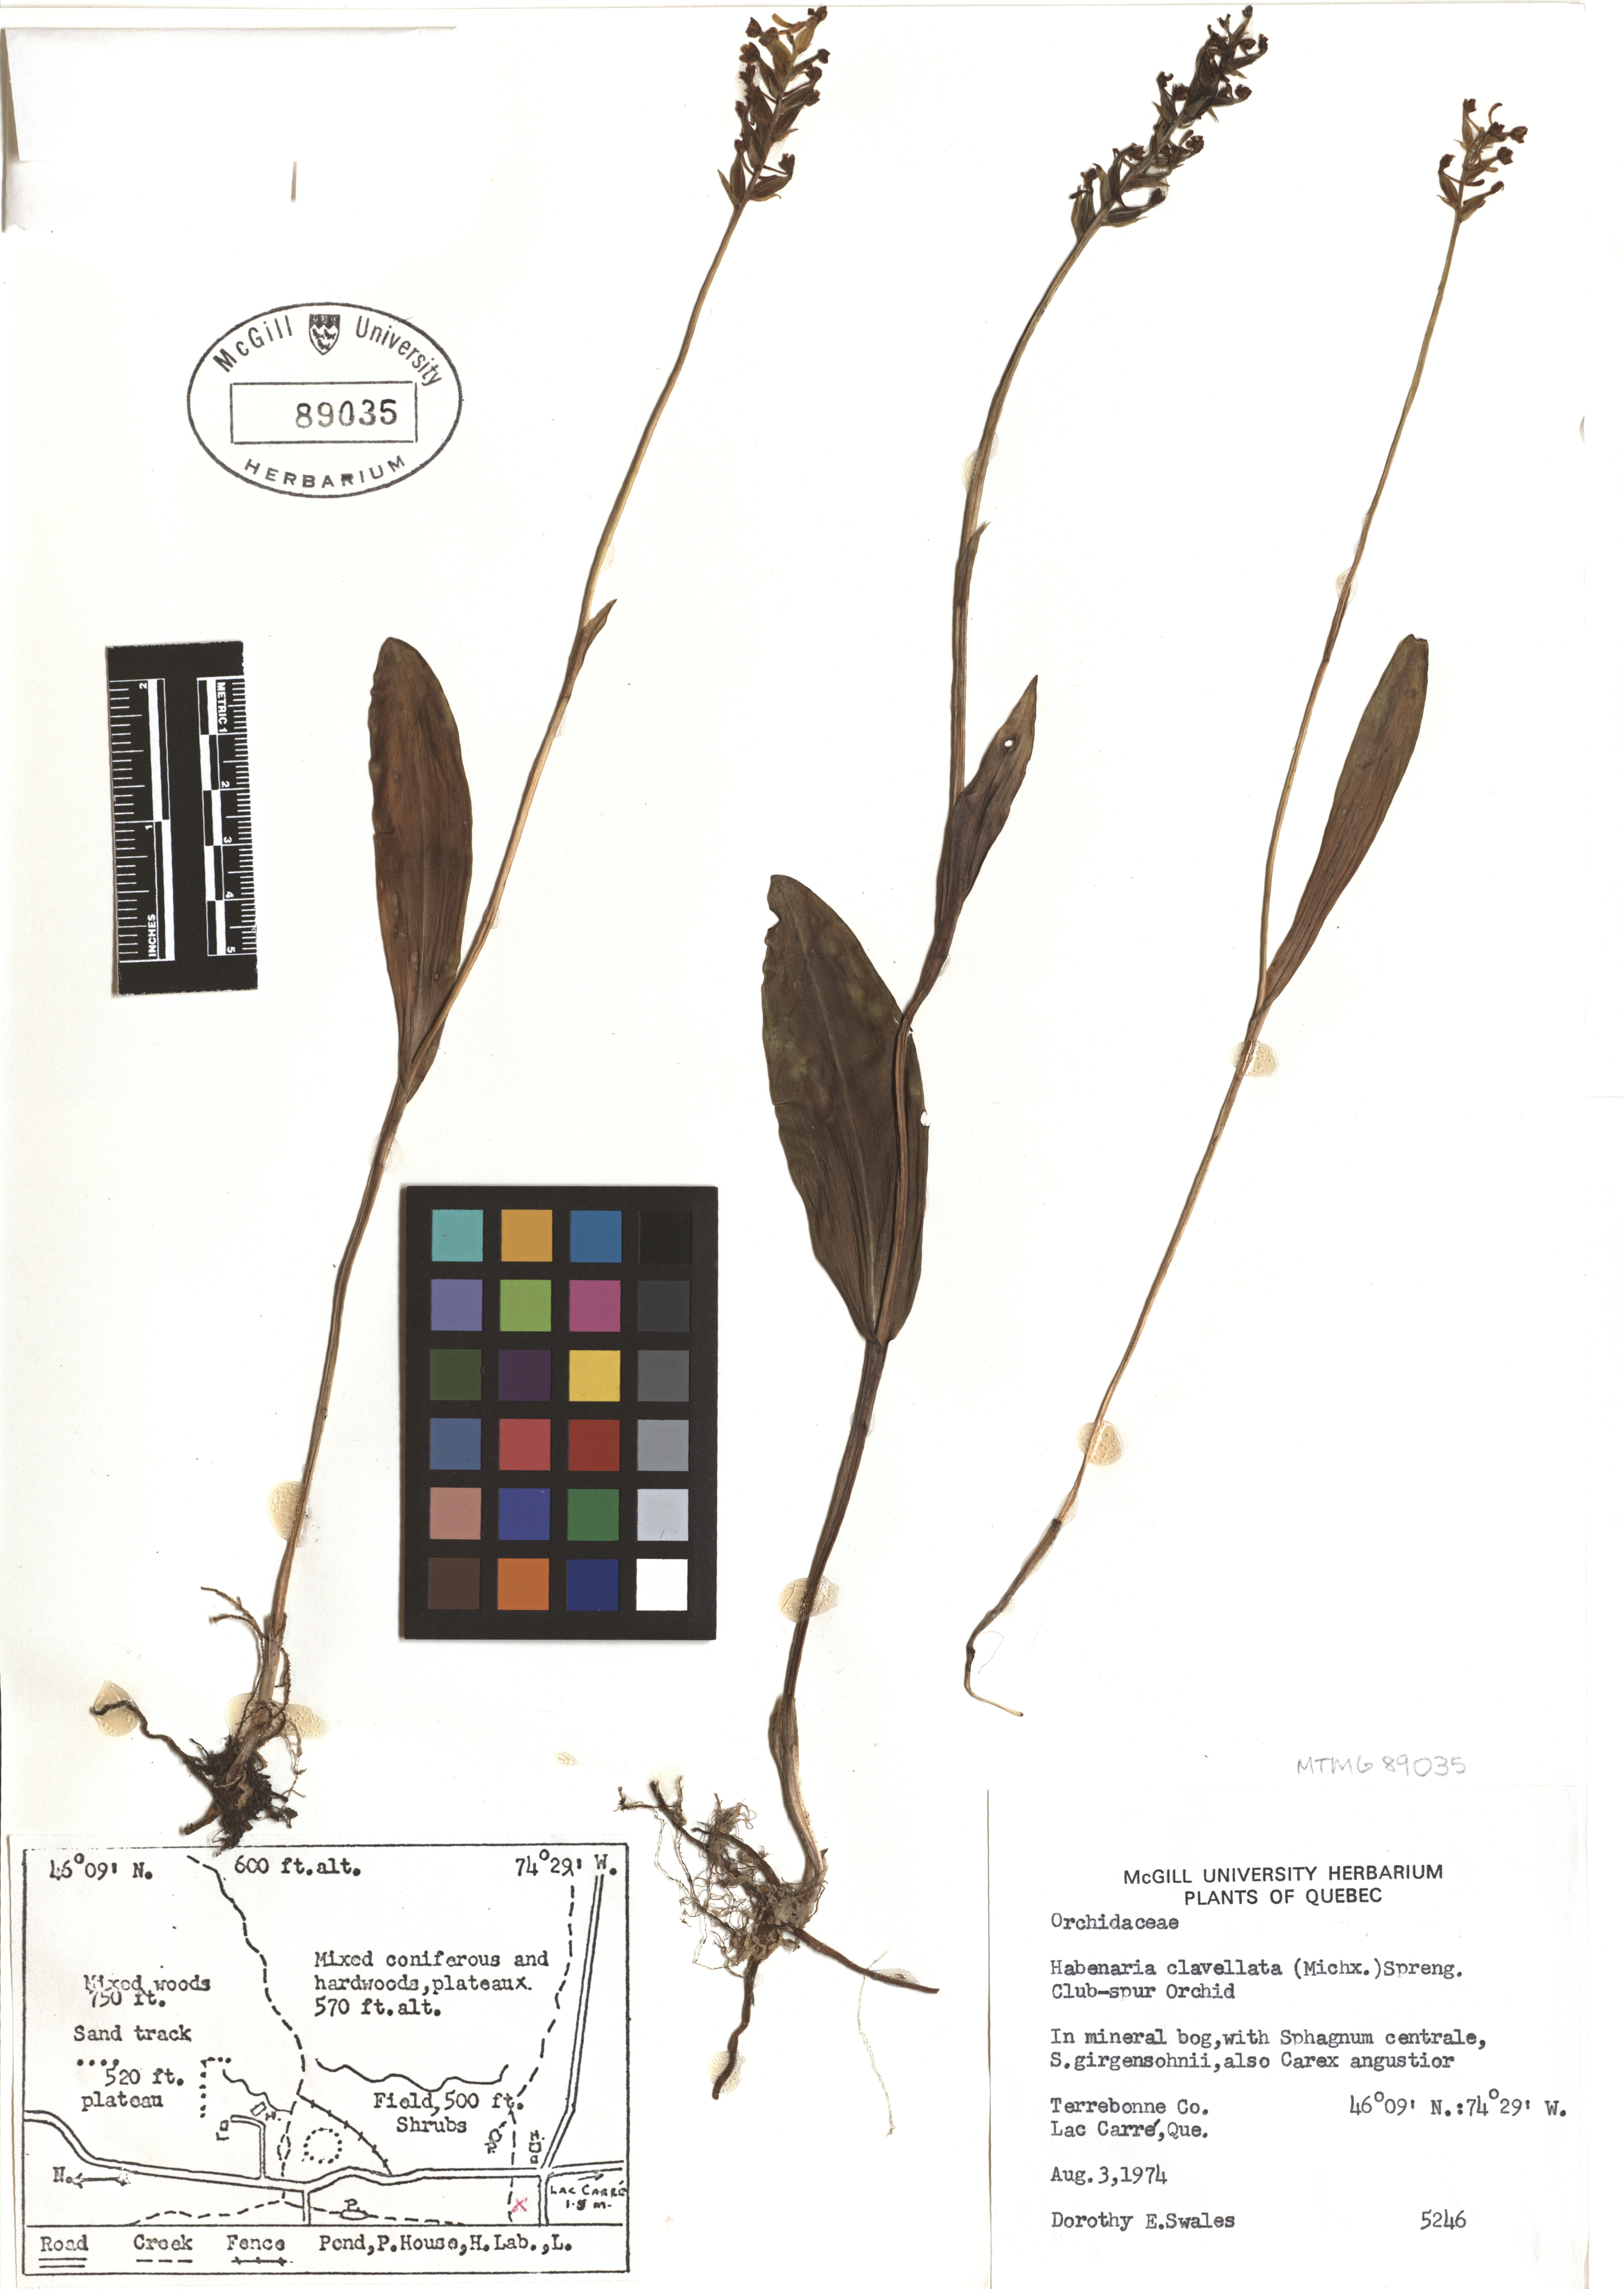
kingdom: Plantae
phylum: Tracheophyta
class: Liliopsida
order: Asparagales
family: Orchidaceae
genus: Platanthera
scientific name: Platanthera clavellata
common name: Club-spur orchid
